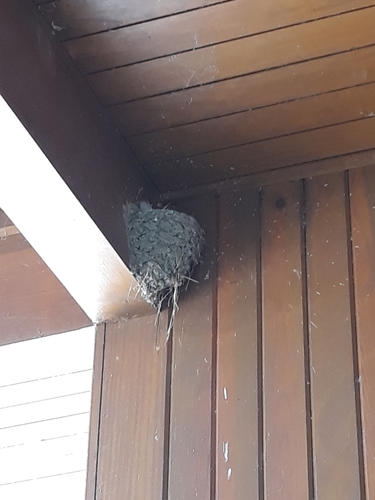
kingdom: Animalia
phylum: Chordata
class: Aves
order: Passeriformes
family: Hirundinidae
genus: Hirundo
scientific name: Hirundo rustica
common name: Barn swallow
